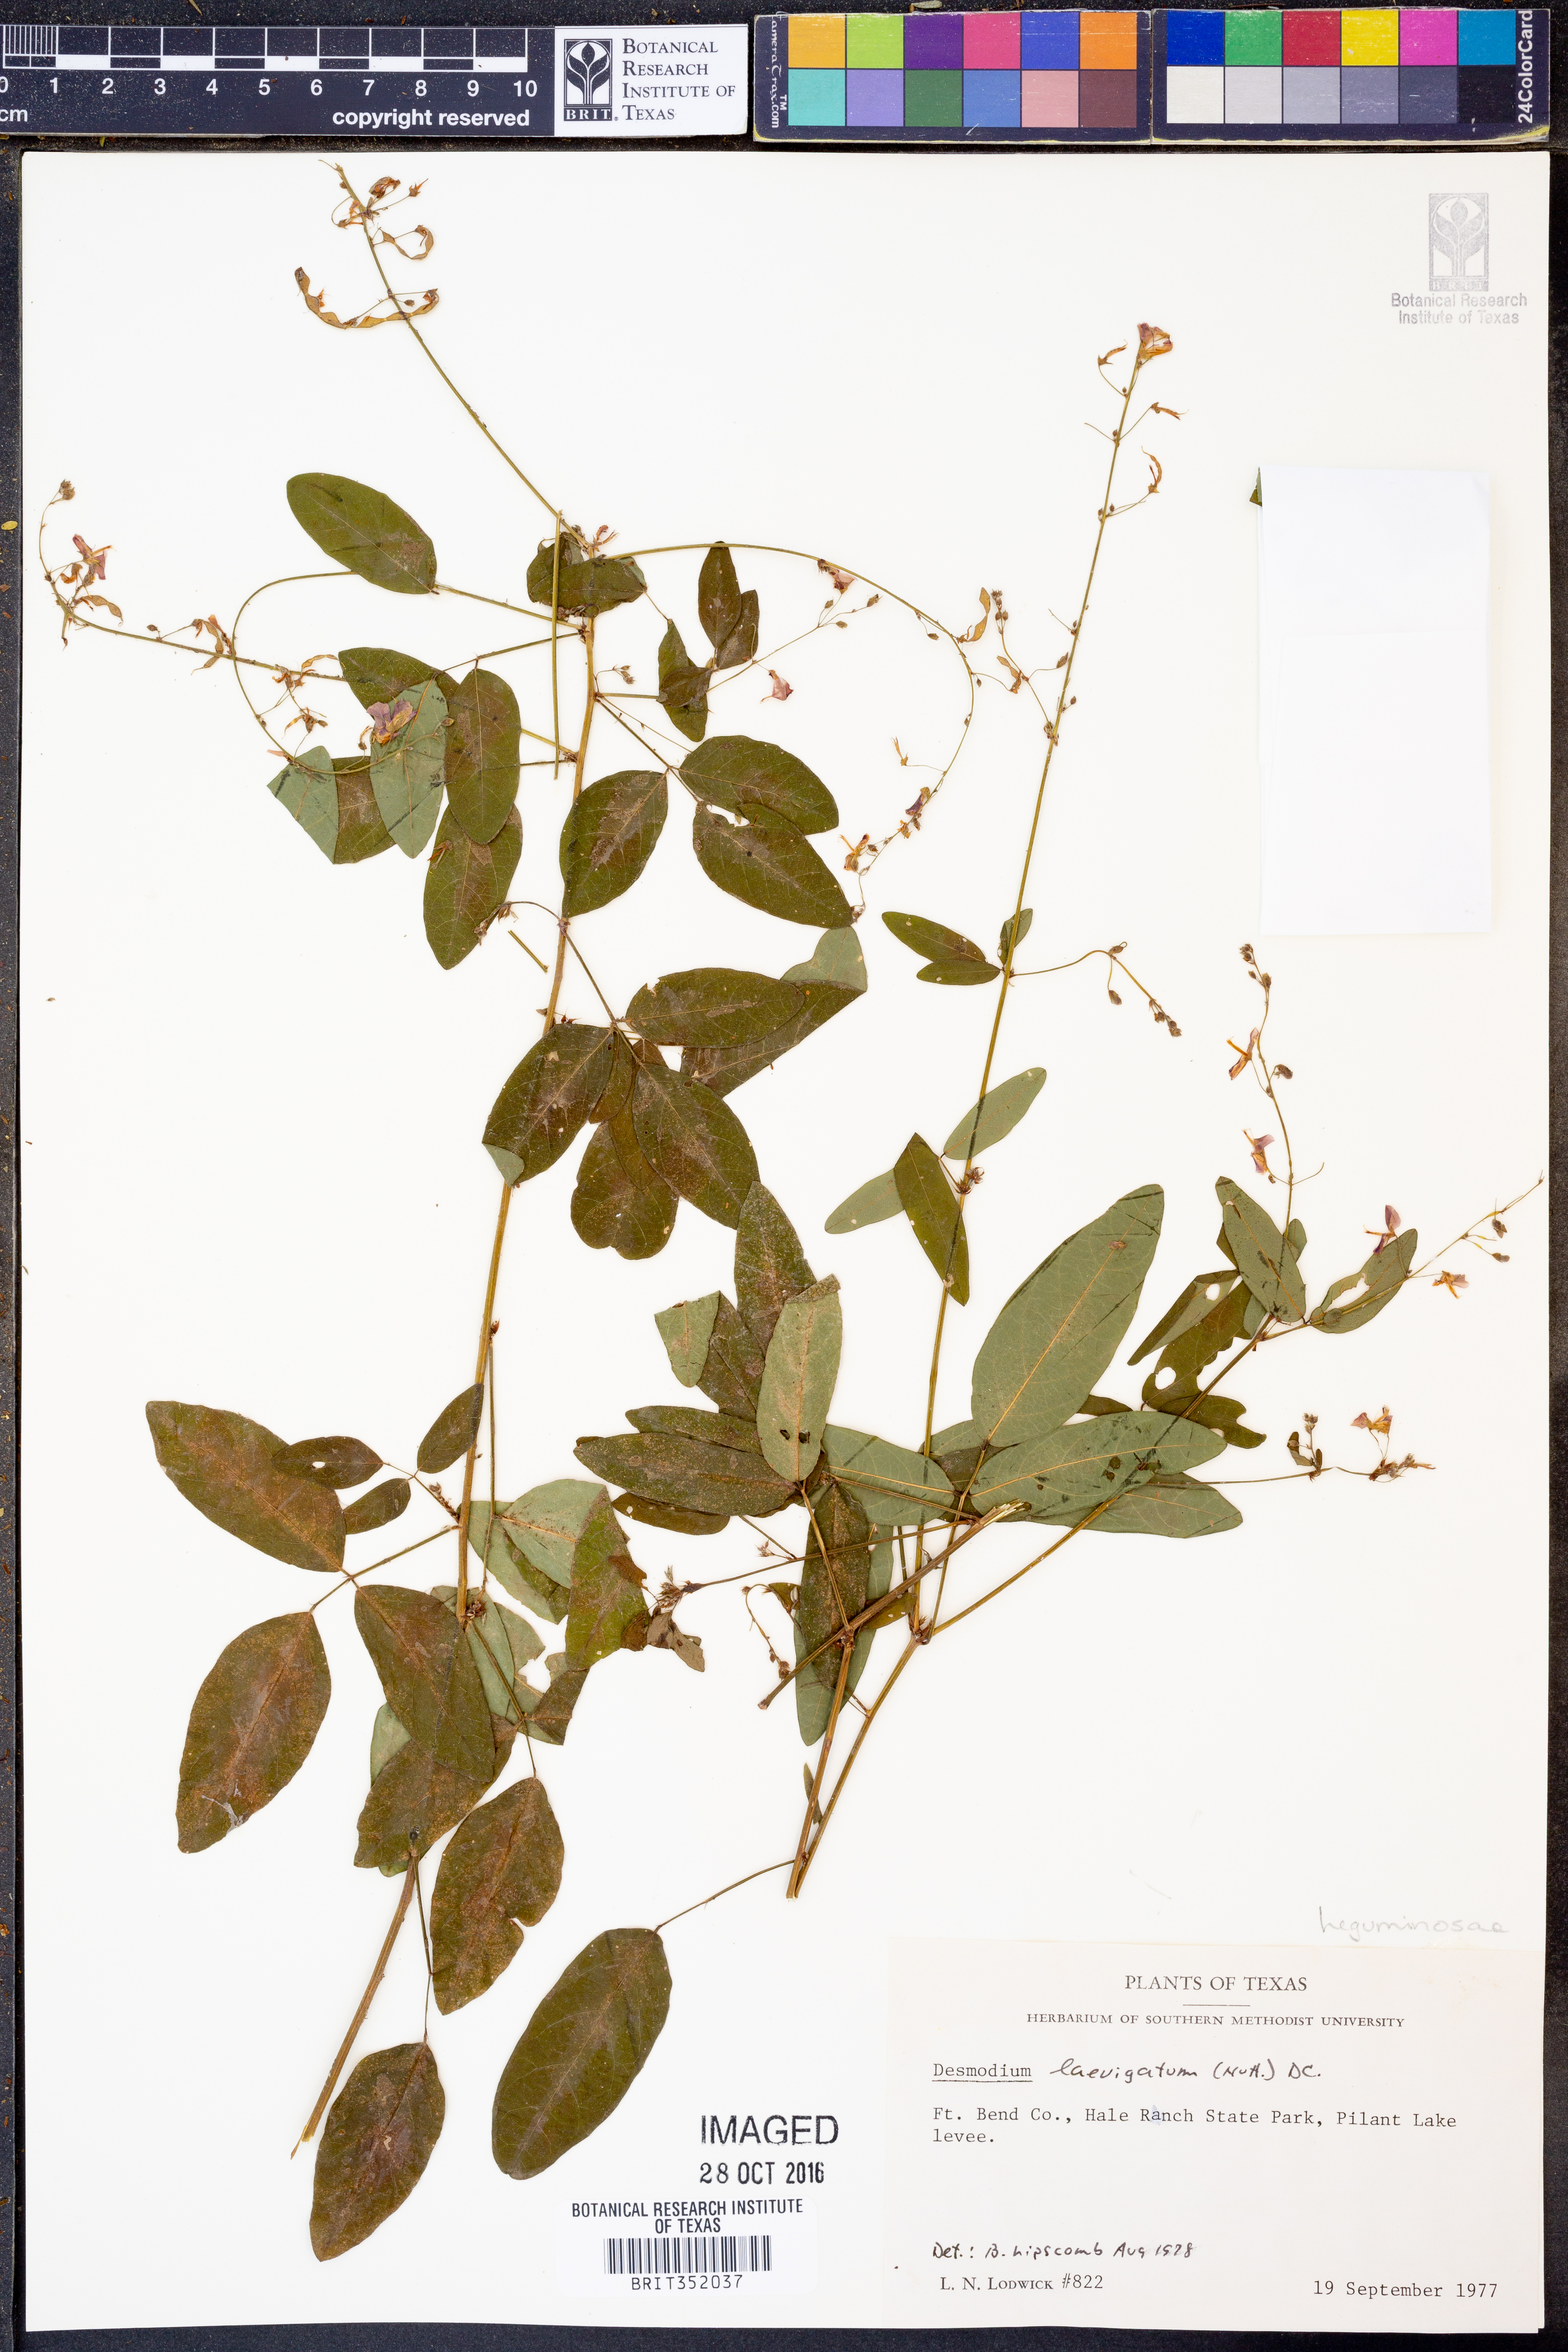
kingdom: Plantae
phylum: Tracheophyta
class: Magnoliopsida
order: Fabales
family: Fabaceae
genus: Desmodium
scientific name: Desmodium laevigatum
